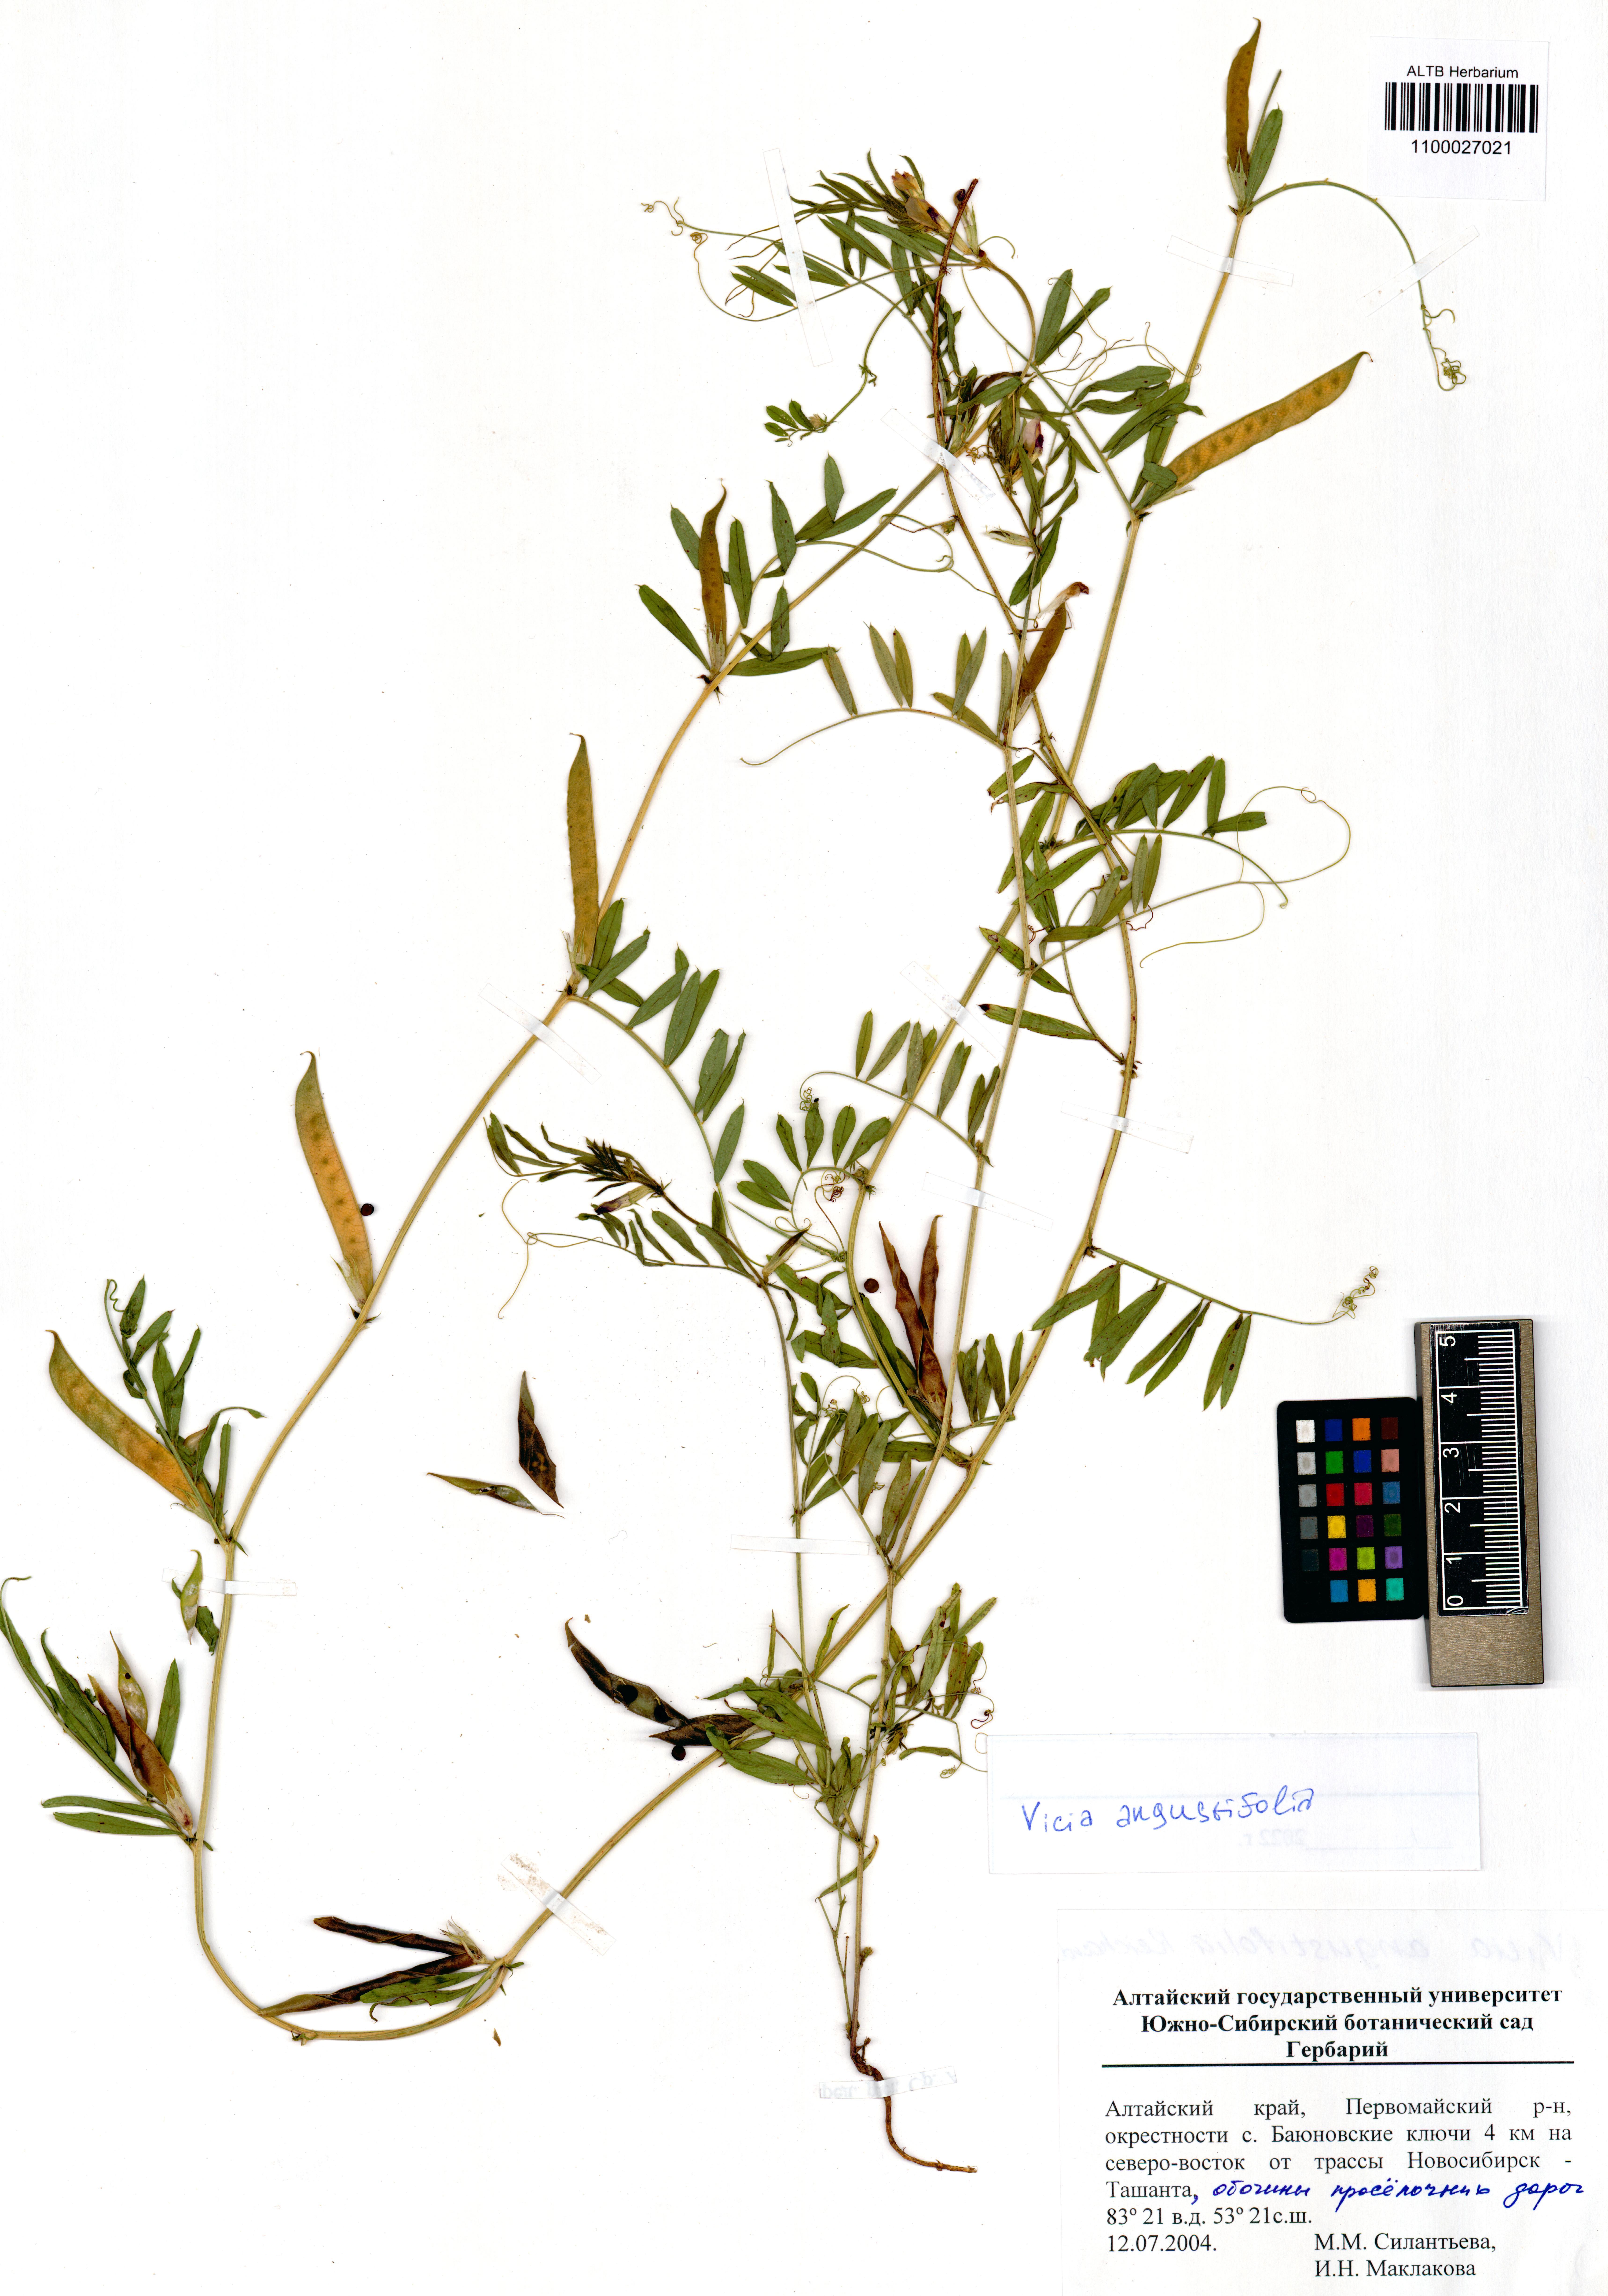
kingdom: Plantae
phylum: Tracheophyta
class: Magnoliopsida
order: Fabales
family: Fabaceae
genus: Vicia
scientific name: Vicia sativa
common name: Garden vetch
